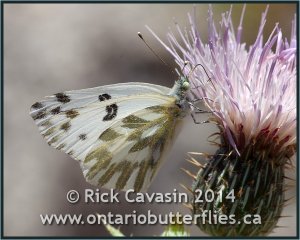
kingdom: Animalia
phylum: Arthropoda
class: Insecta
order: Lepidoptera
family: Pieridae
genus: Pontia
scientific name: Pontia beckerii
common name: Becker's White
